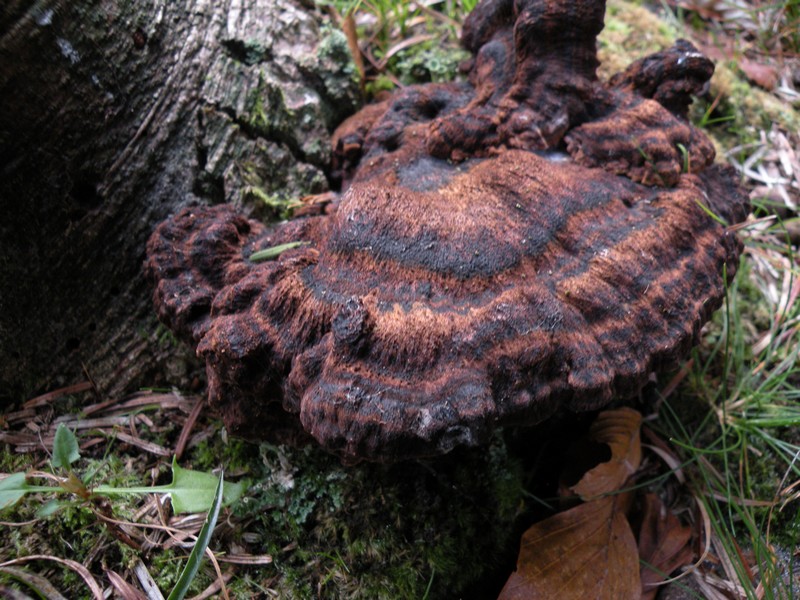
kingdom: Fungi
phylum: Basidiomycota
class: Agaricomycetes
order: Polyporales
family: Ischnodermataceae
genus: Ischnoderma
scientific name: Ischnoderma benzoinum
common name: gran-tjæreporesvamp
